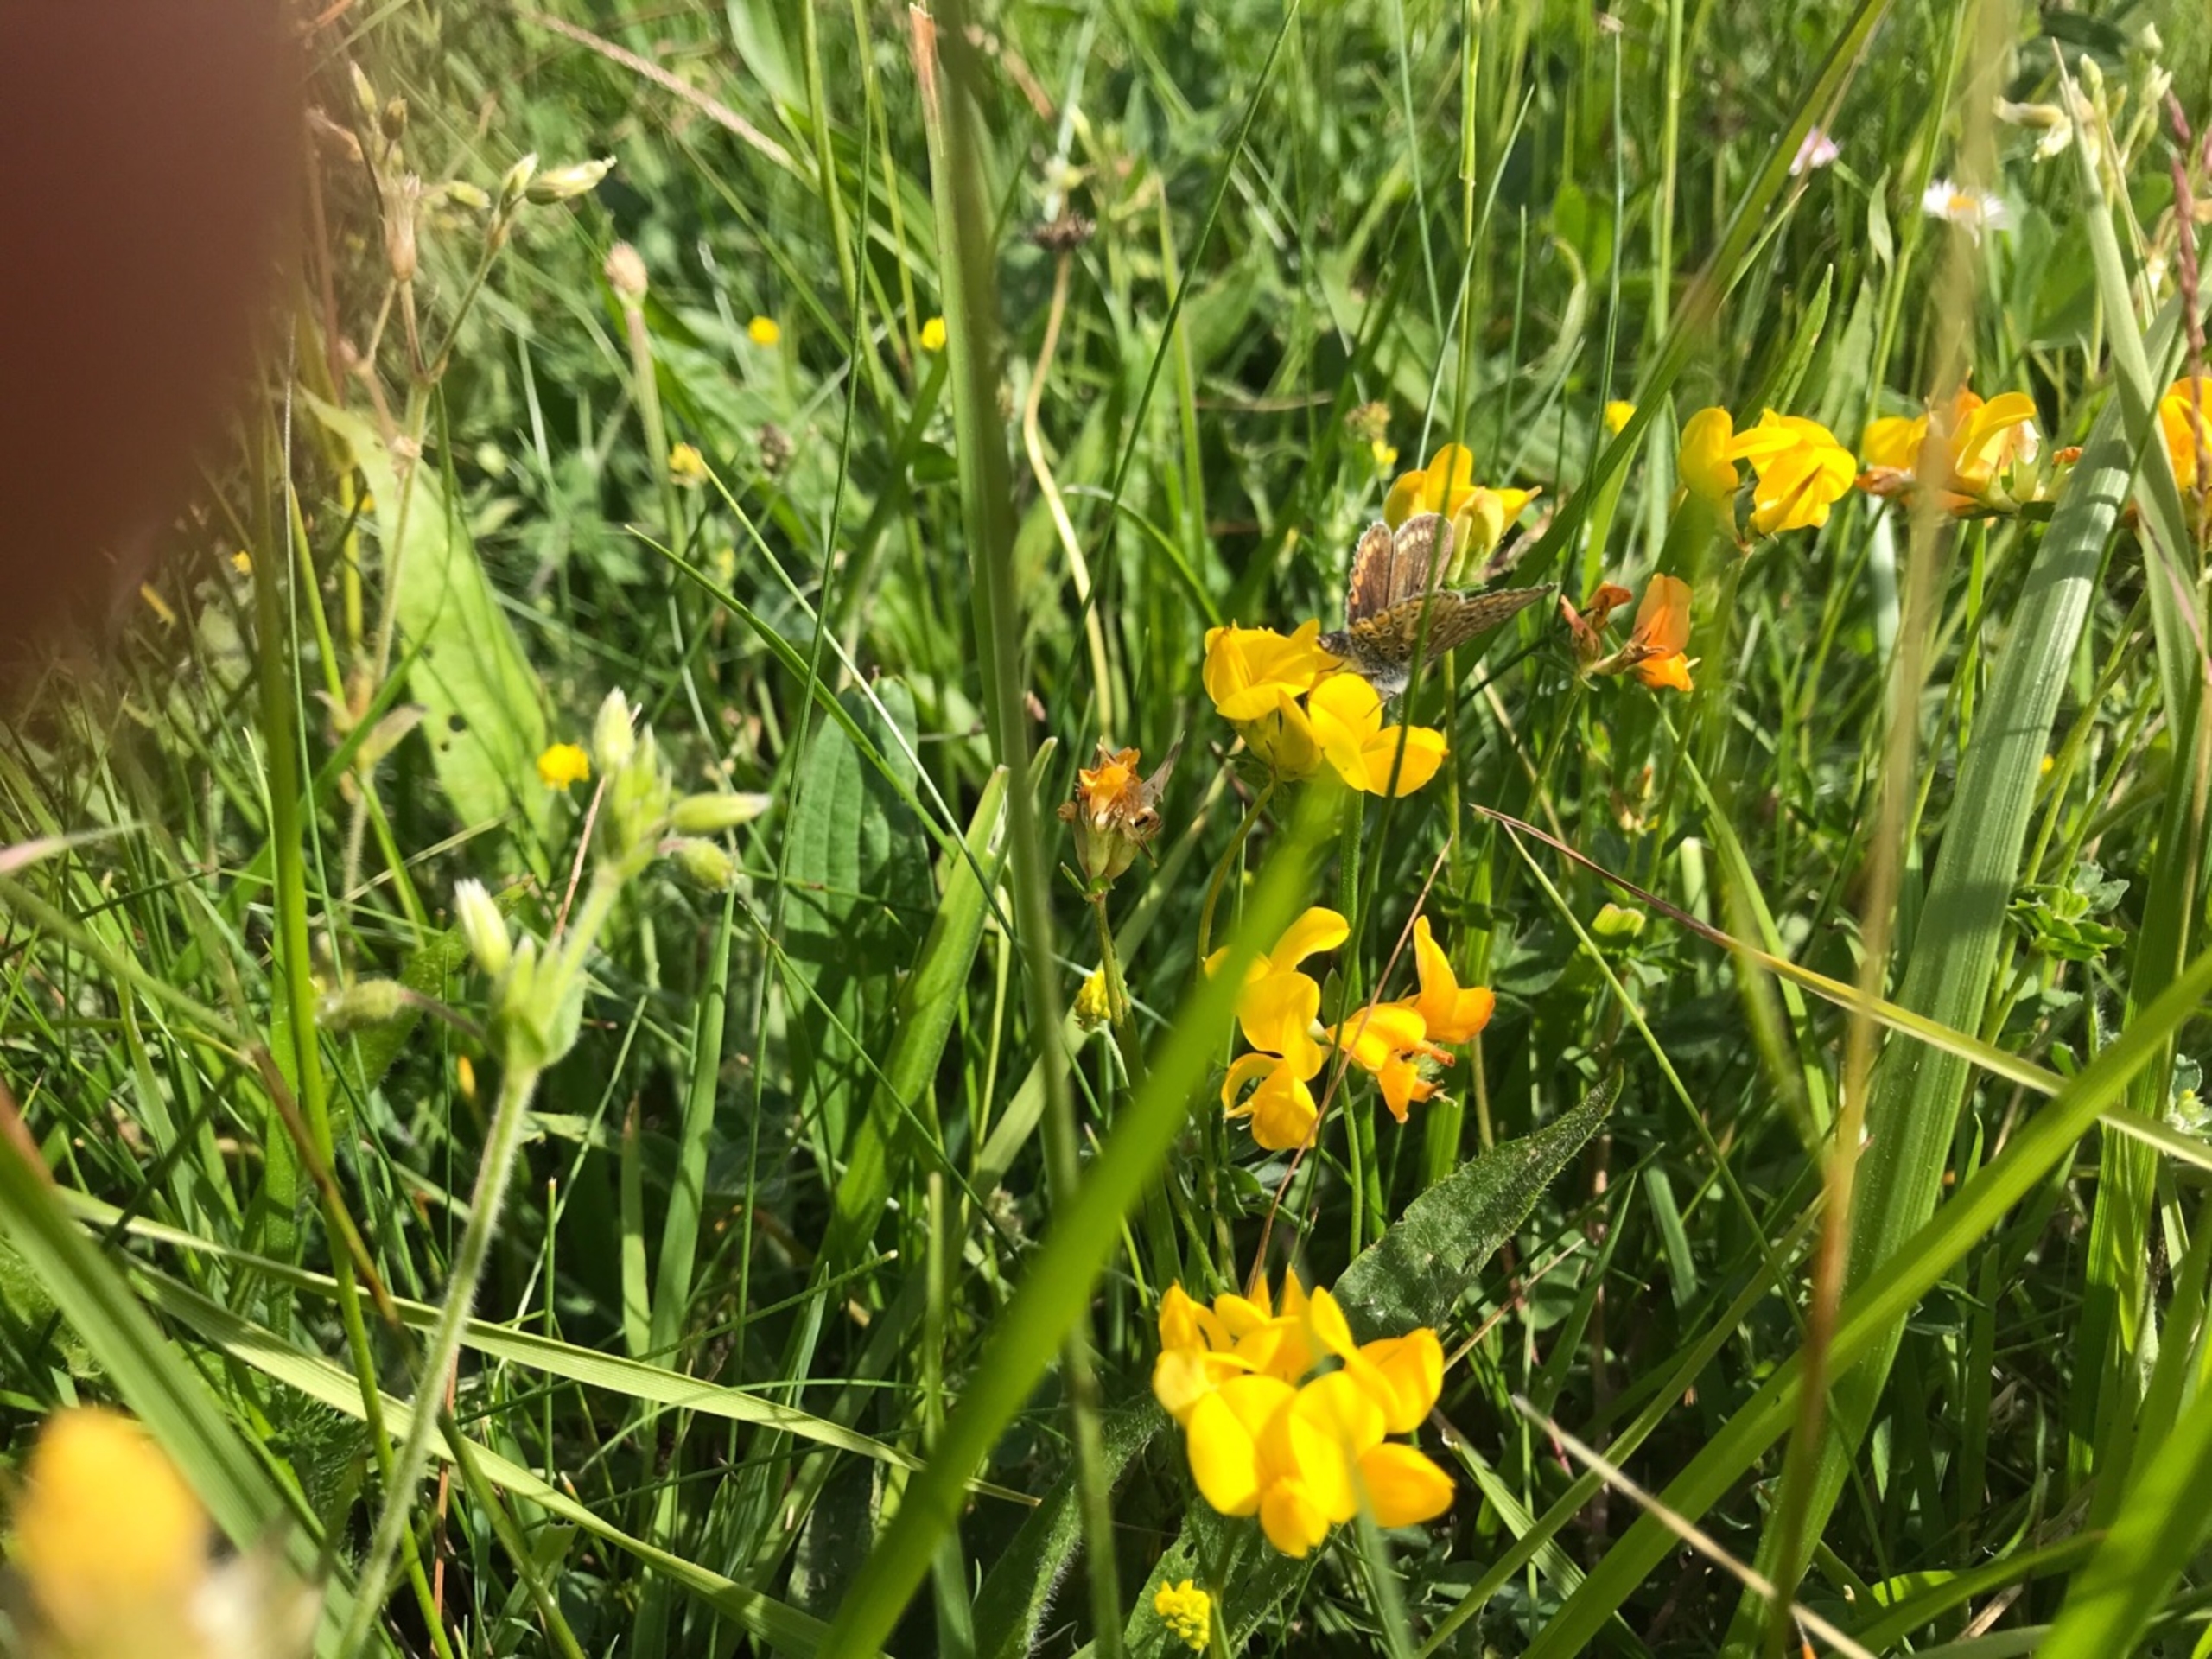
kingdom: Animalia
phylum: Arthropoda
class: Insecta
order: Lepidoptera
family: Lycaenidae
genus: Polyommatus
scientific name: Polyommatus icarus
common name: Almindelig blåfugl
